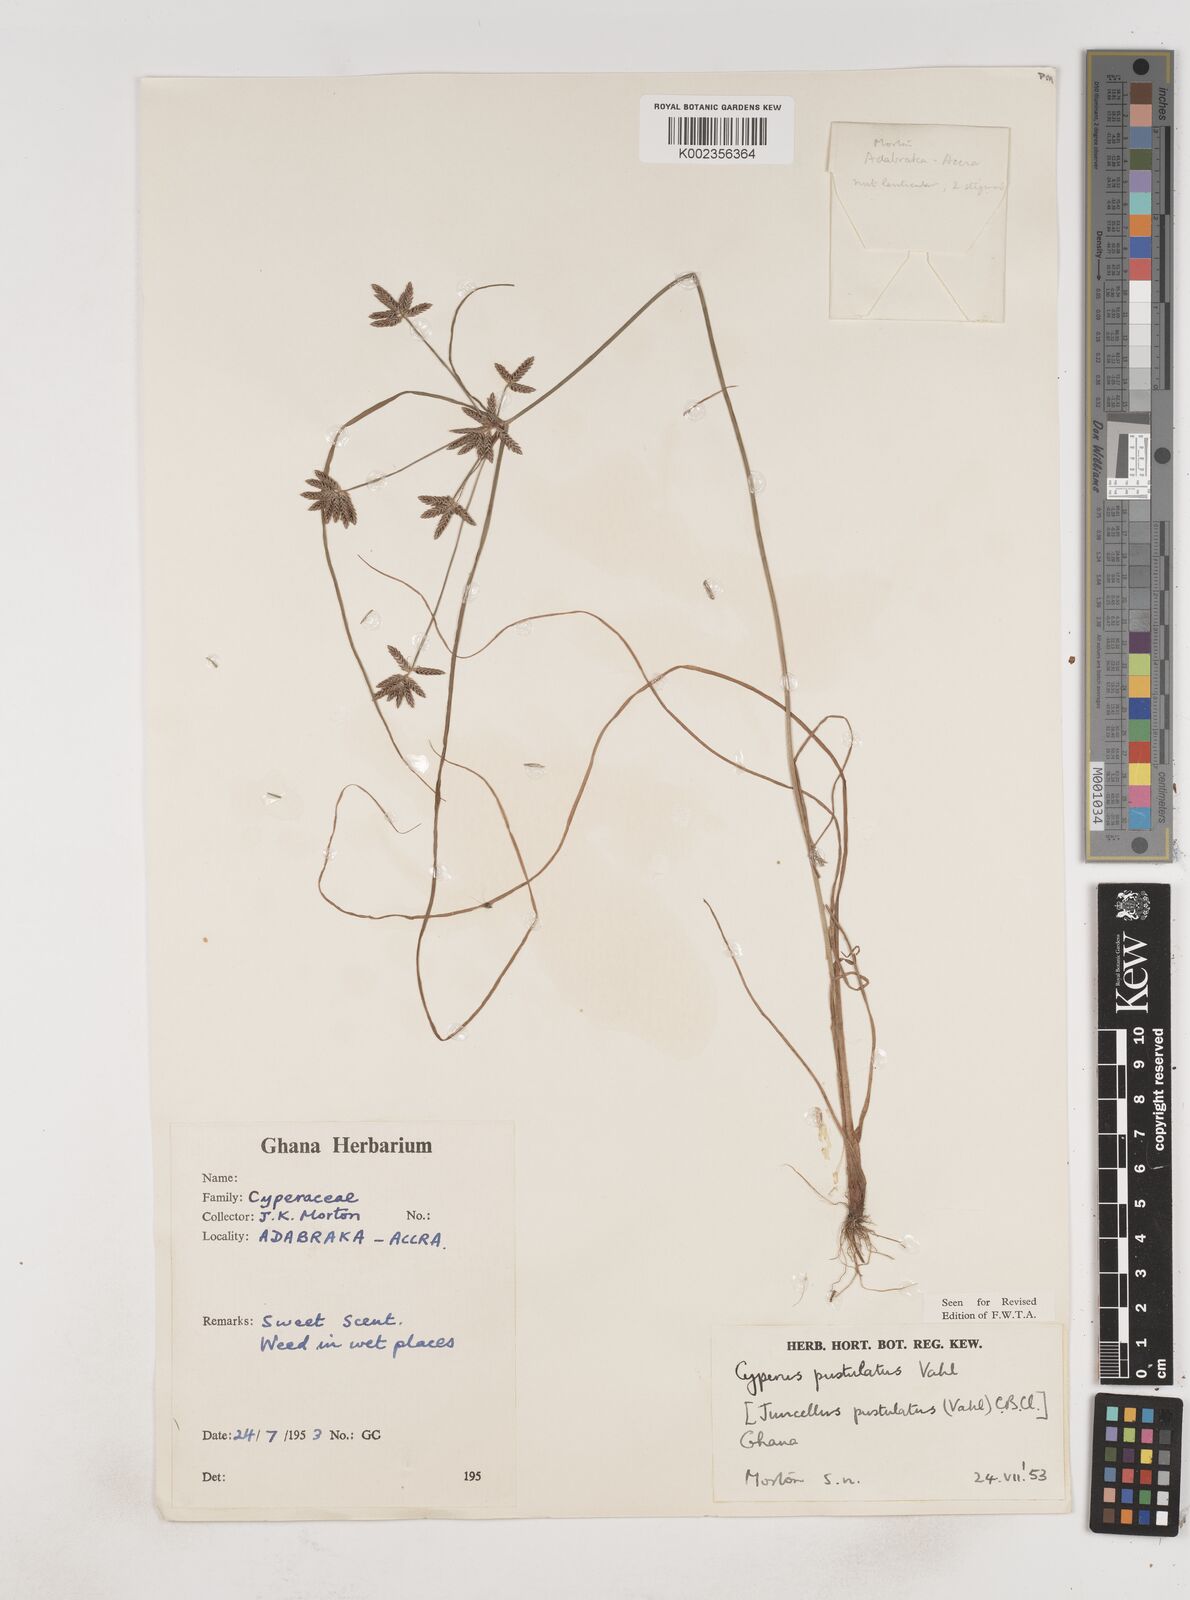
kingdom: Plantae
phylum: Tracheophyta
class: Liliopsida
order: Poales
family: Cyperaceae
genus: Cyperus
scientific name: Cyperus pustulatus
